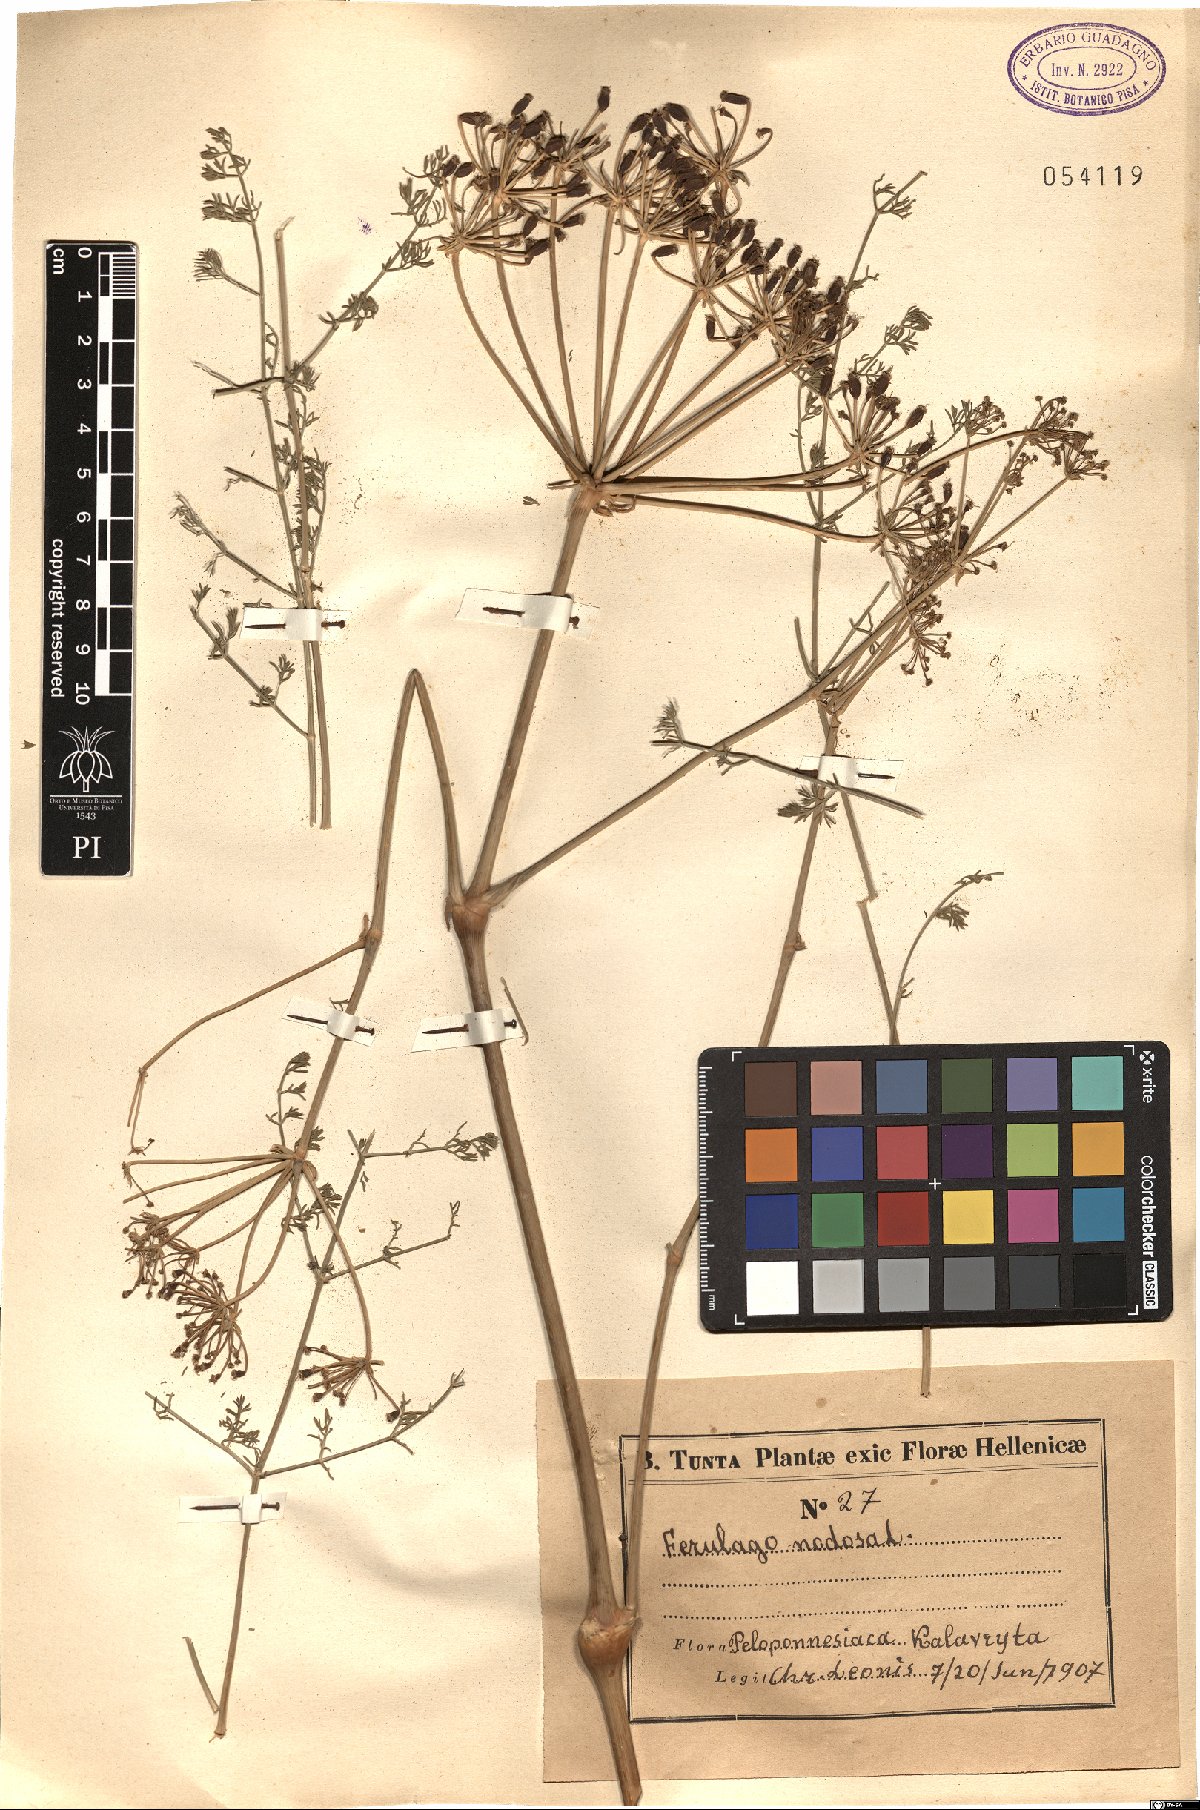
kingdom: Plantae
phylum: Tracheophyta
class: Magnoliopsida
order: Apiales
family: Apiaceae
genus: Ferulago
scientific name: Ferulago nodosa
